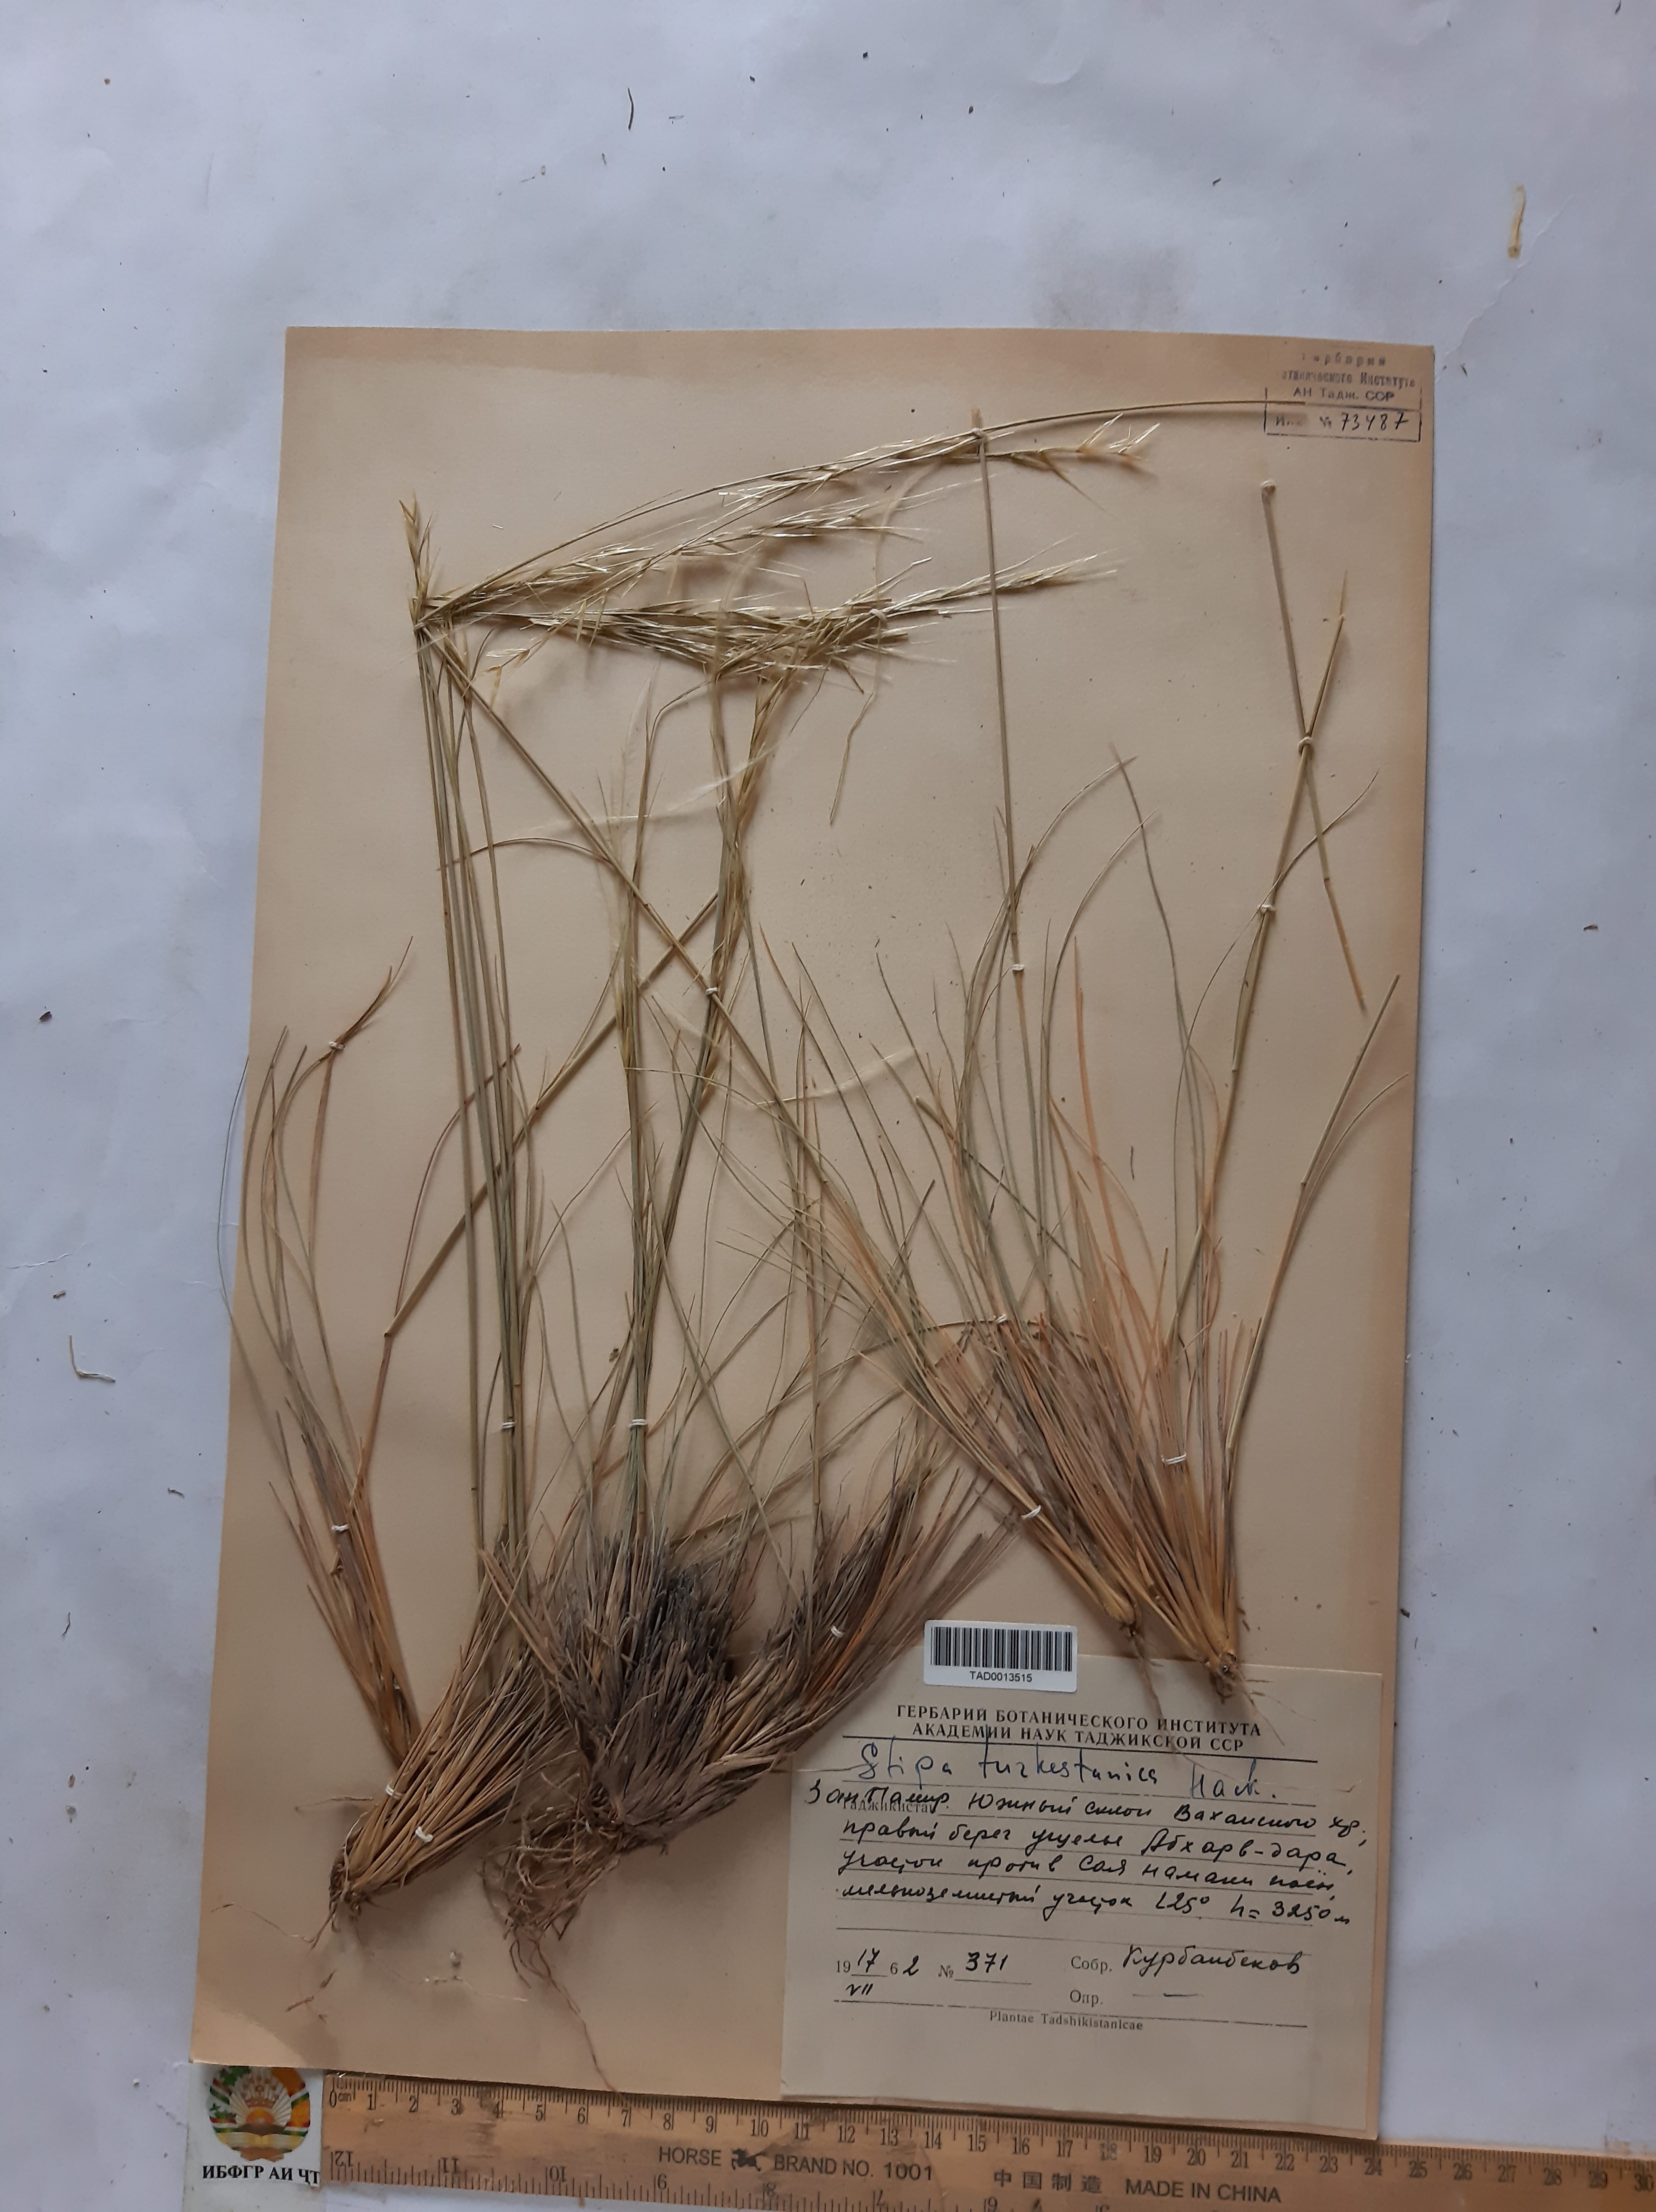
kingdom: Plantae
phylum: Tracheophyta
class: Liliopsida
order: Poales
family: Poaceae
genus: Stipa
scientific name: Stipa turkestanica
